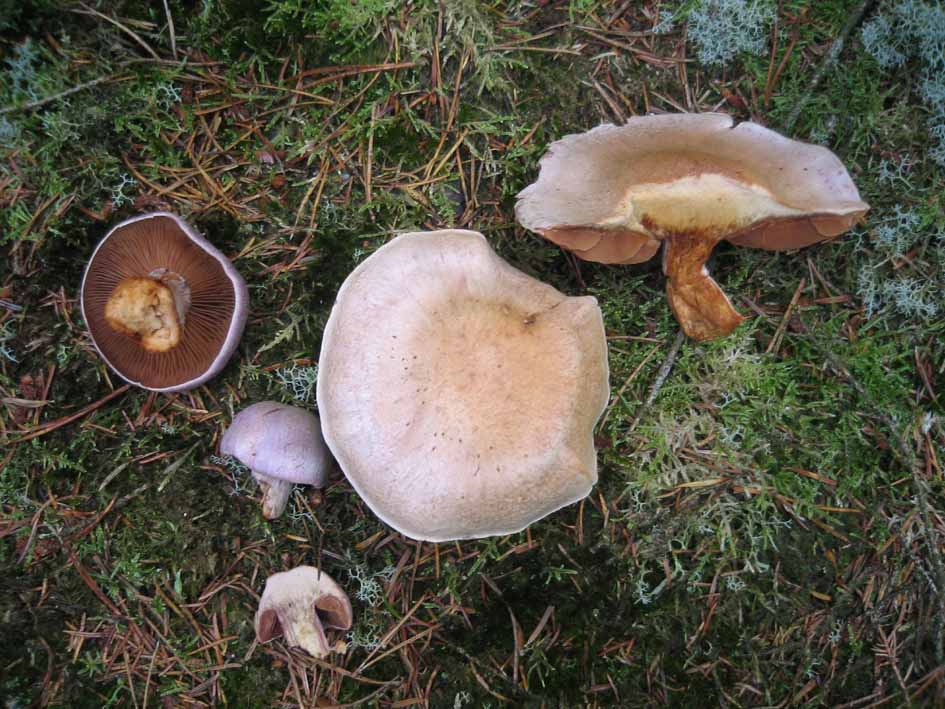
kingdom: Fungi
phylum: Basidiomycota
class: Agaricomycetes
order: Agaricales
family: Cortinariaceae
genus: Cortinarius
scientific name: Cortinarius traganus
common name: safrankødet slørhat
